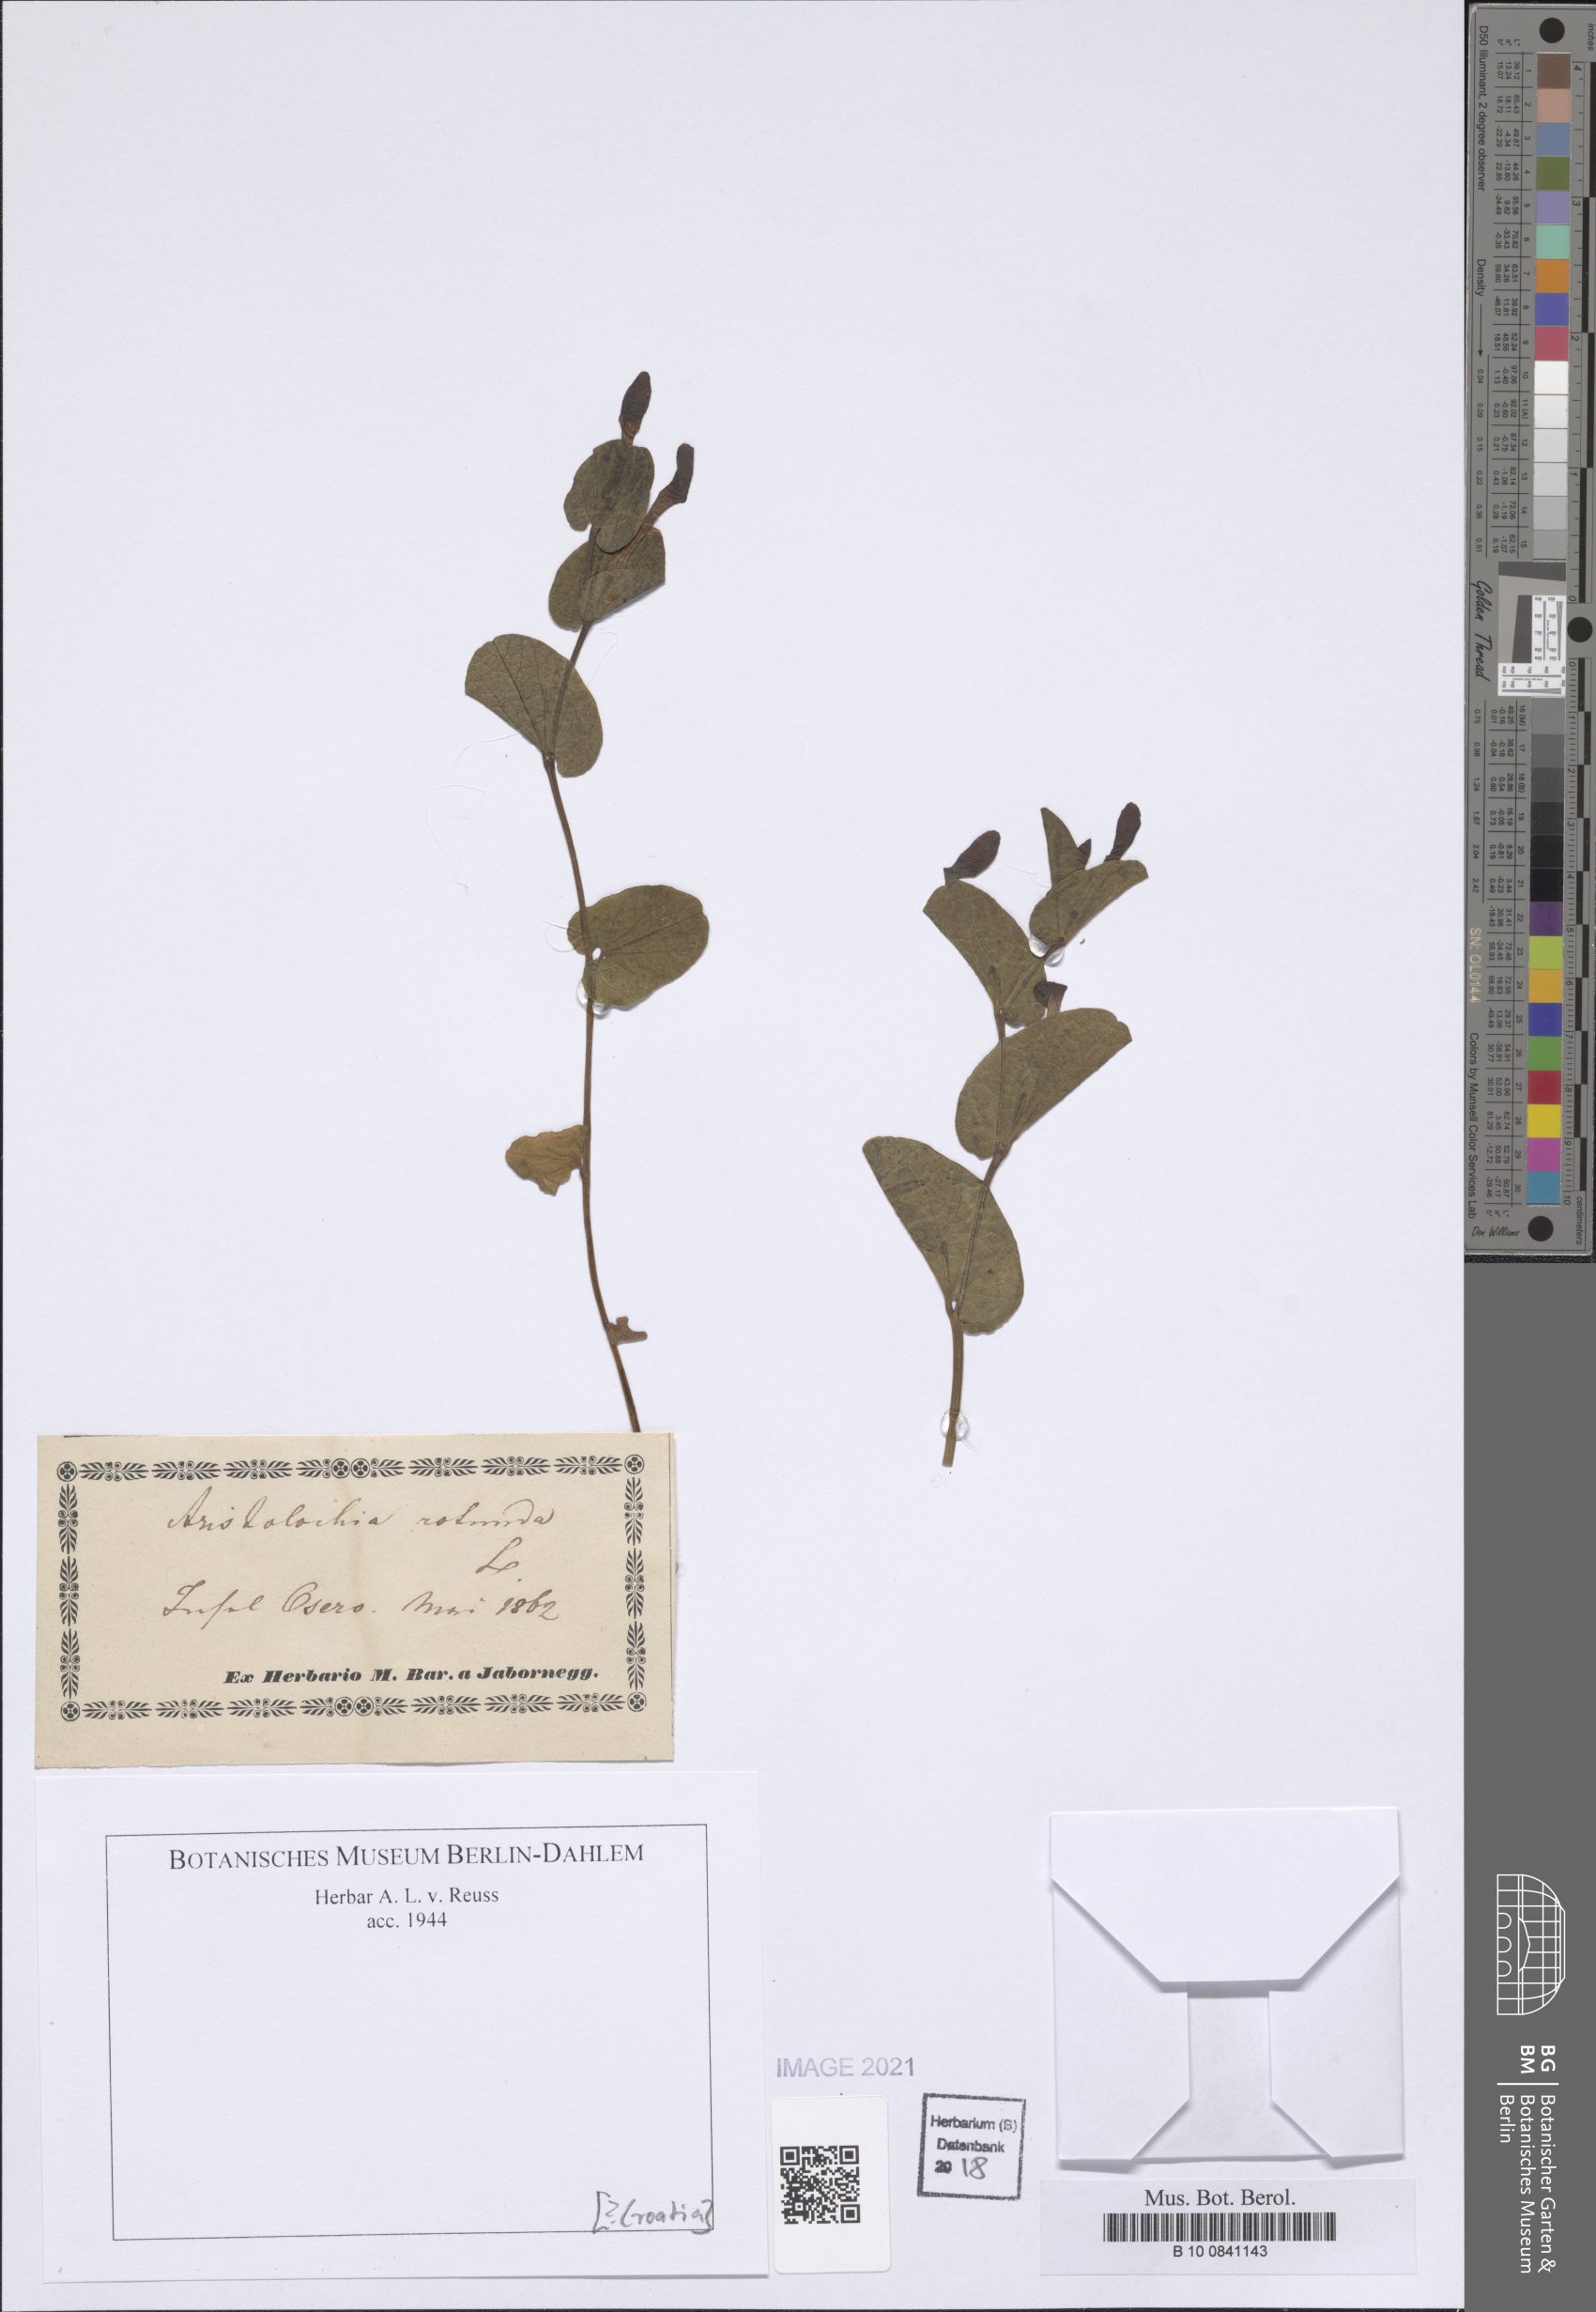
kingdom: Plantae
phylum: Tracheophyta
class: Magnoliopsida
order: Piperales
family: Aristolochiaceae
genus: Aristolochia
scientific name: Aristolochia rotunda
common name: Smearwort
